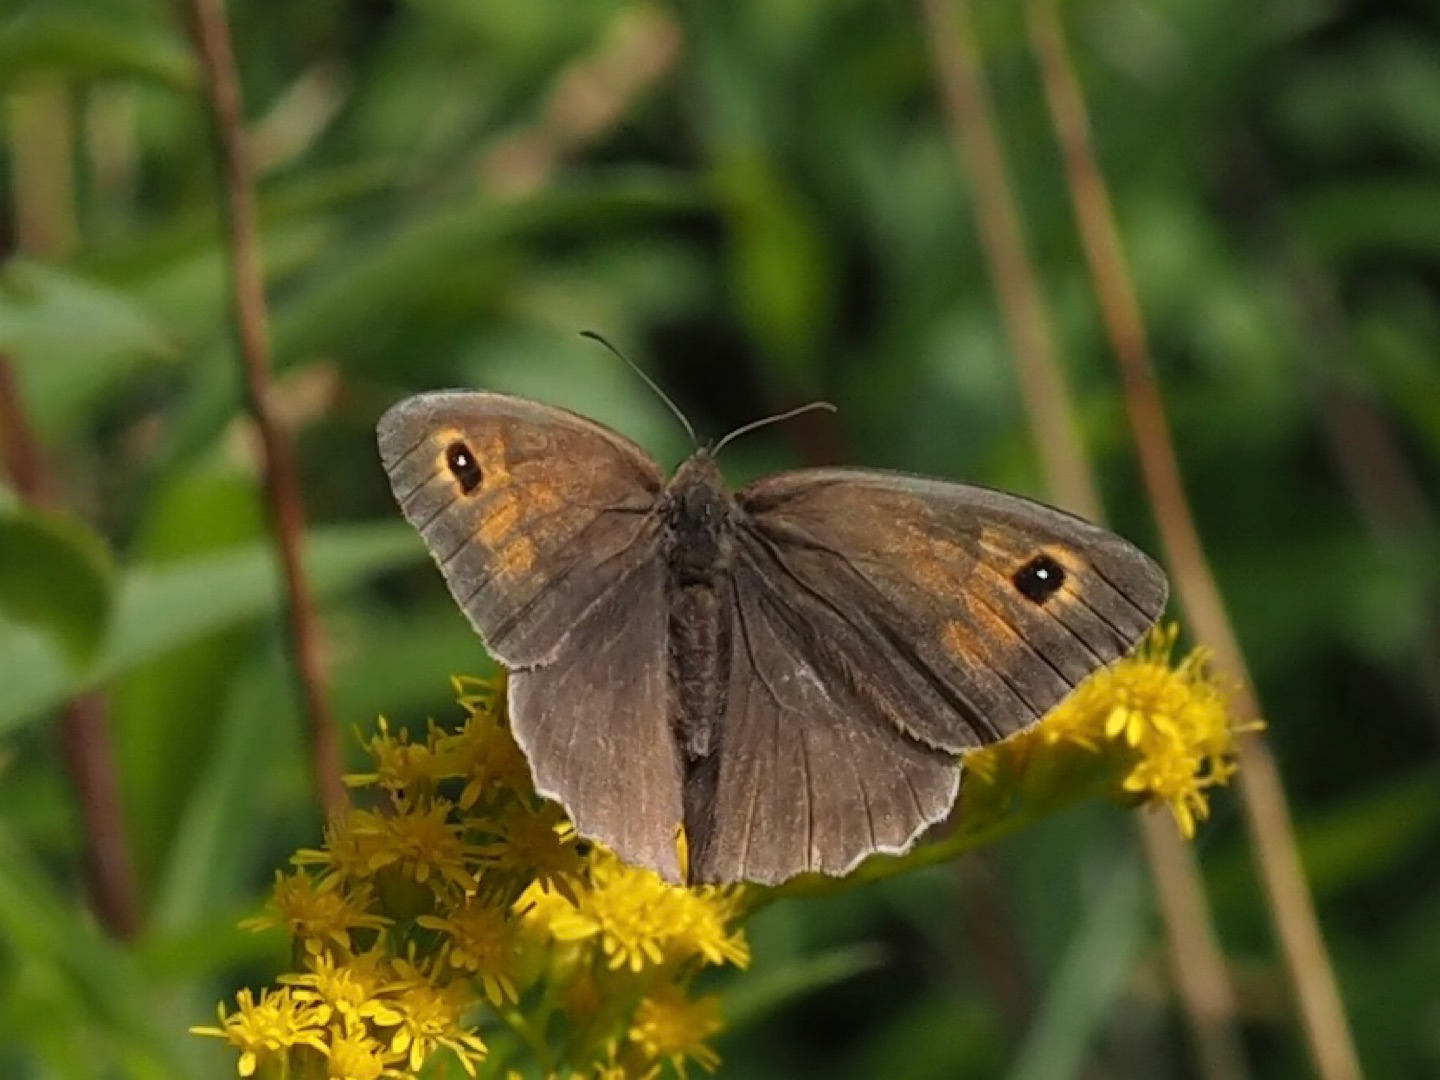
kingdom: Animalia
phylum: Arthropoda
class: Insecta
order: Lepidoptera
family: Nymphalidae
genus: Maniola
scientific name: Maniola jurtina
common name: Græsrandøje
